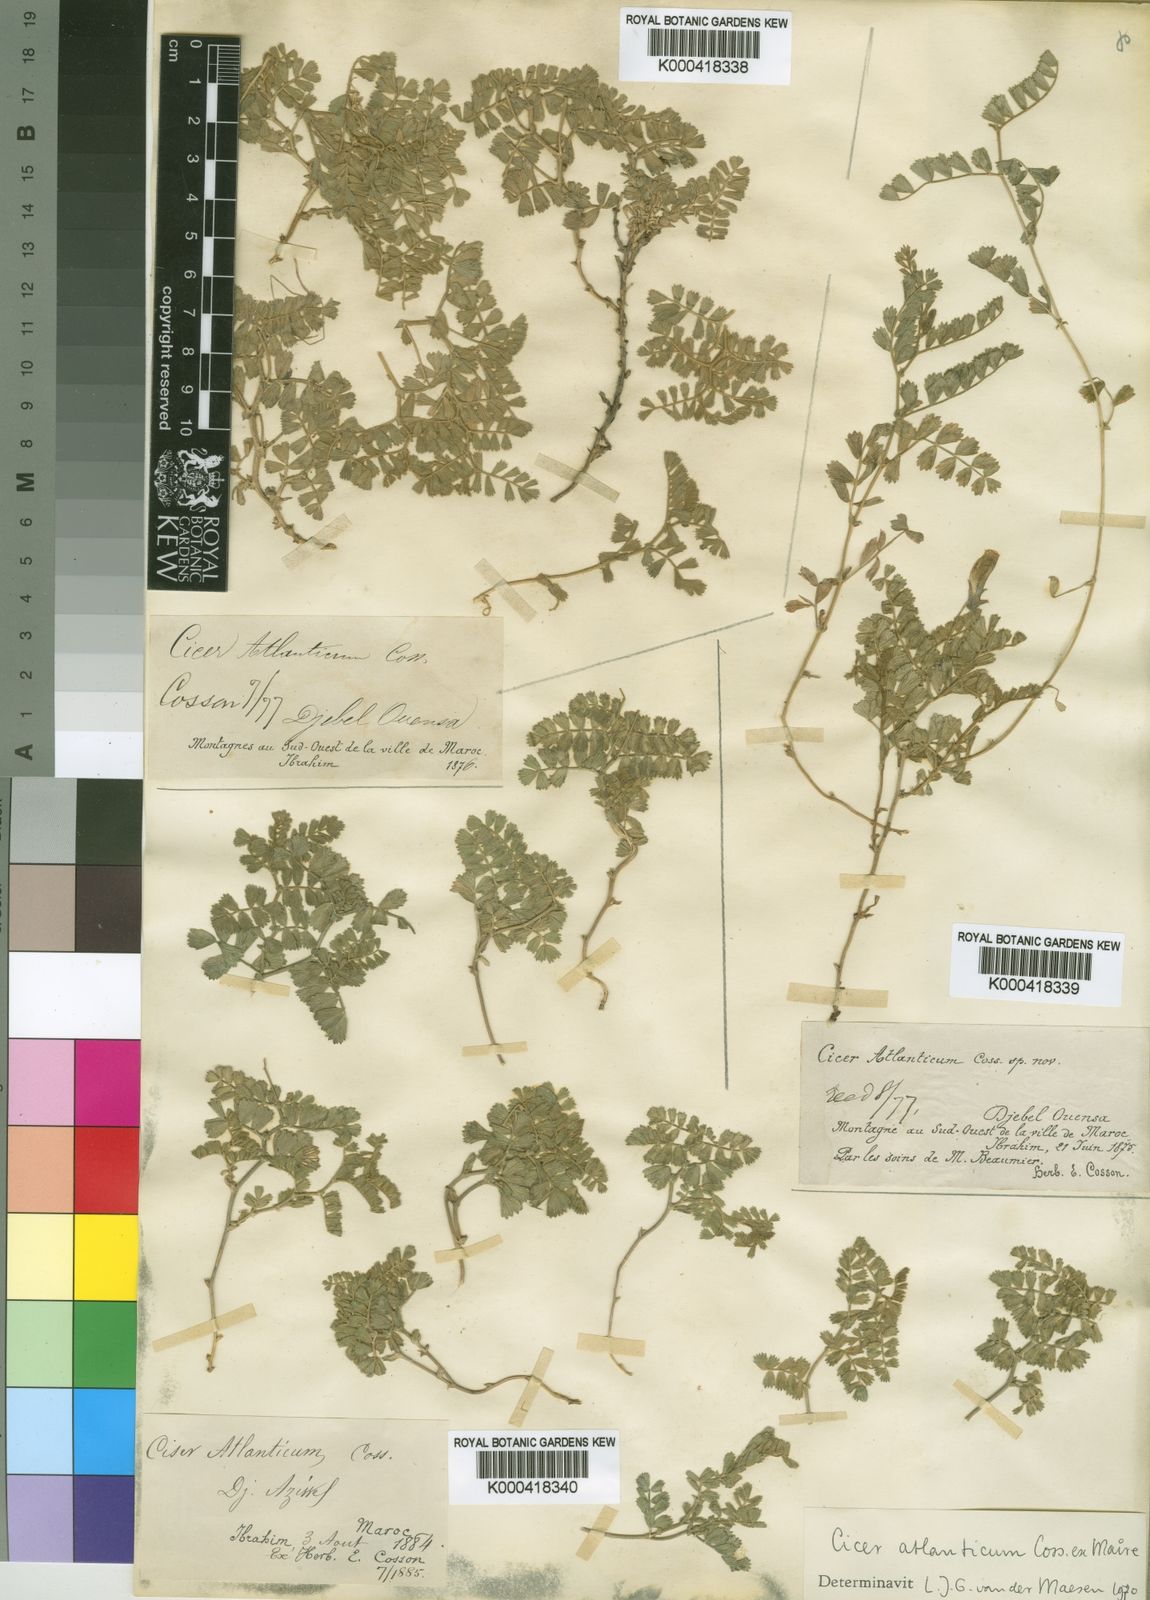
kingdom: Plantae
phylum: Tracheophyta
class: Magnoliopsida
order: Fabales
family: Fabaceae
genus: Cicer
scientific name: Cicer
